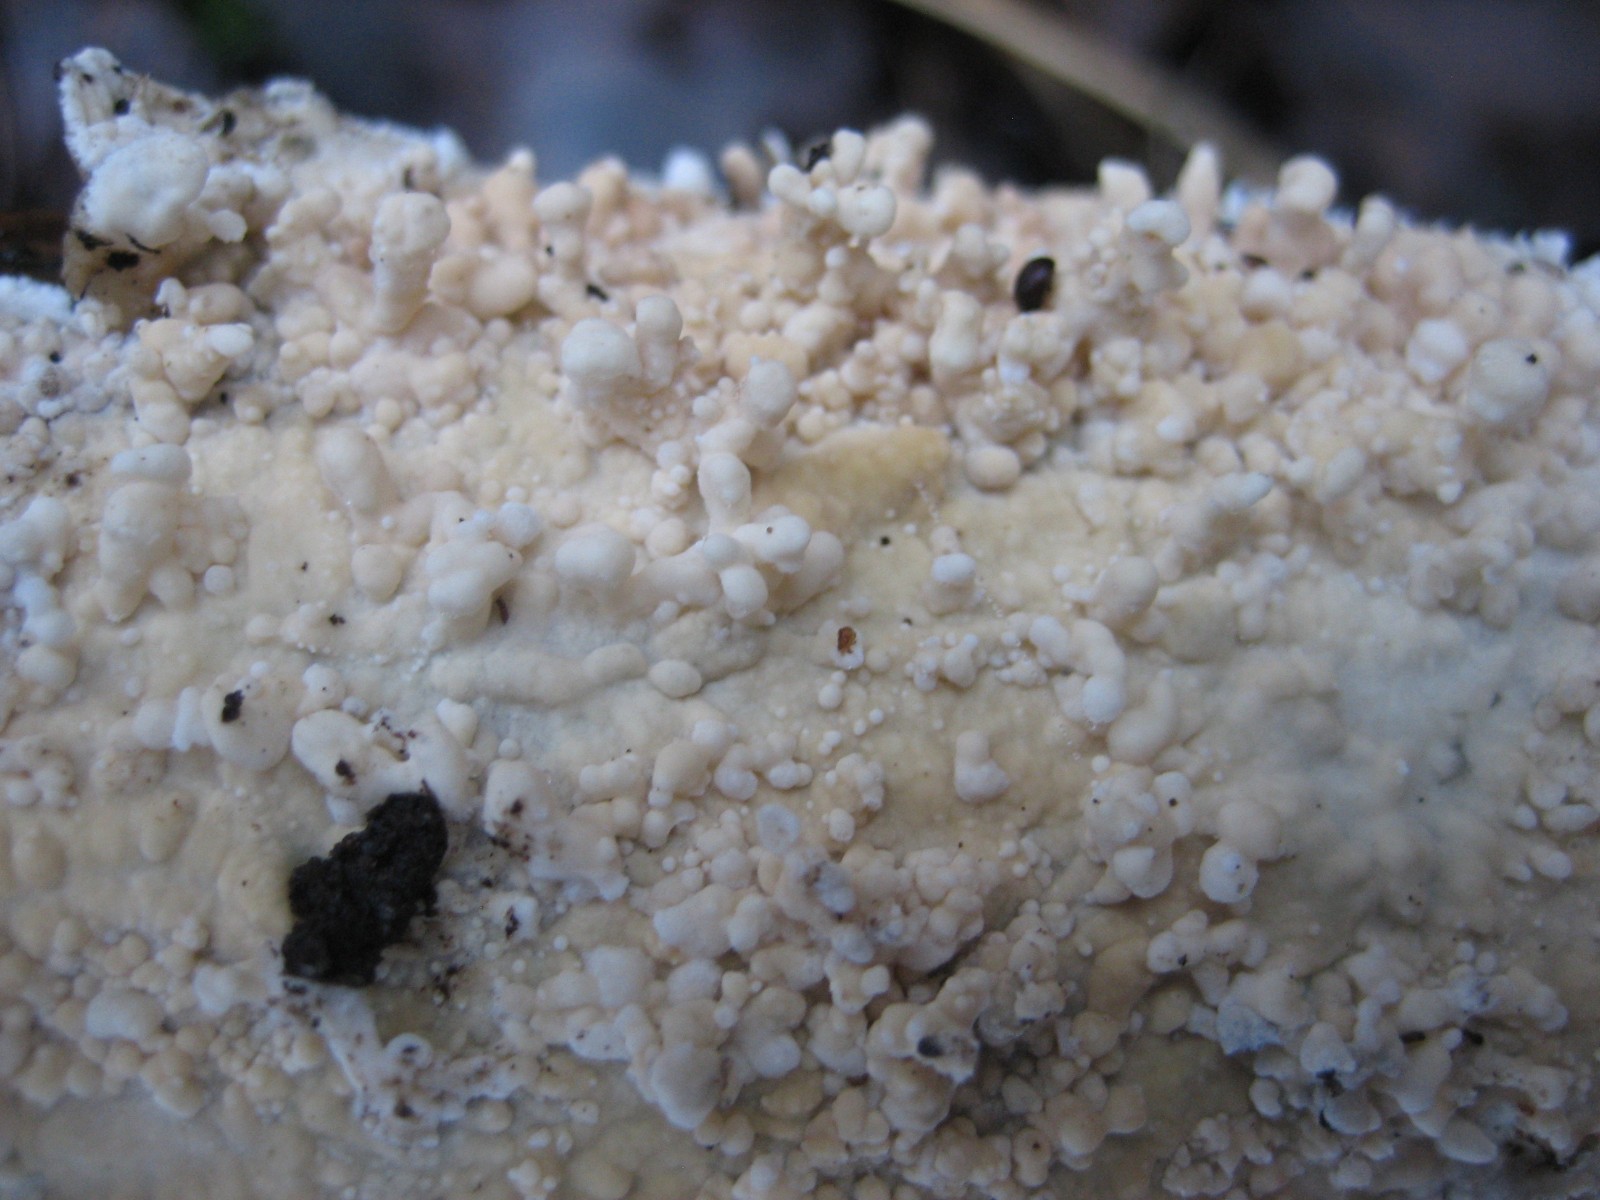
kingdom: Fungi
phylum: Basidiomycota
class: Agaricomycetes
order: Corticiales
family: Corticiaceae
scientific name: Corticiaceae
